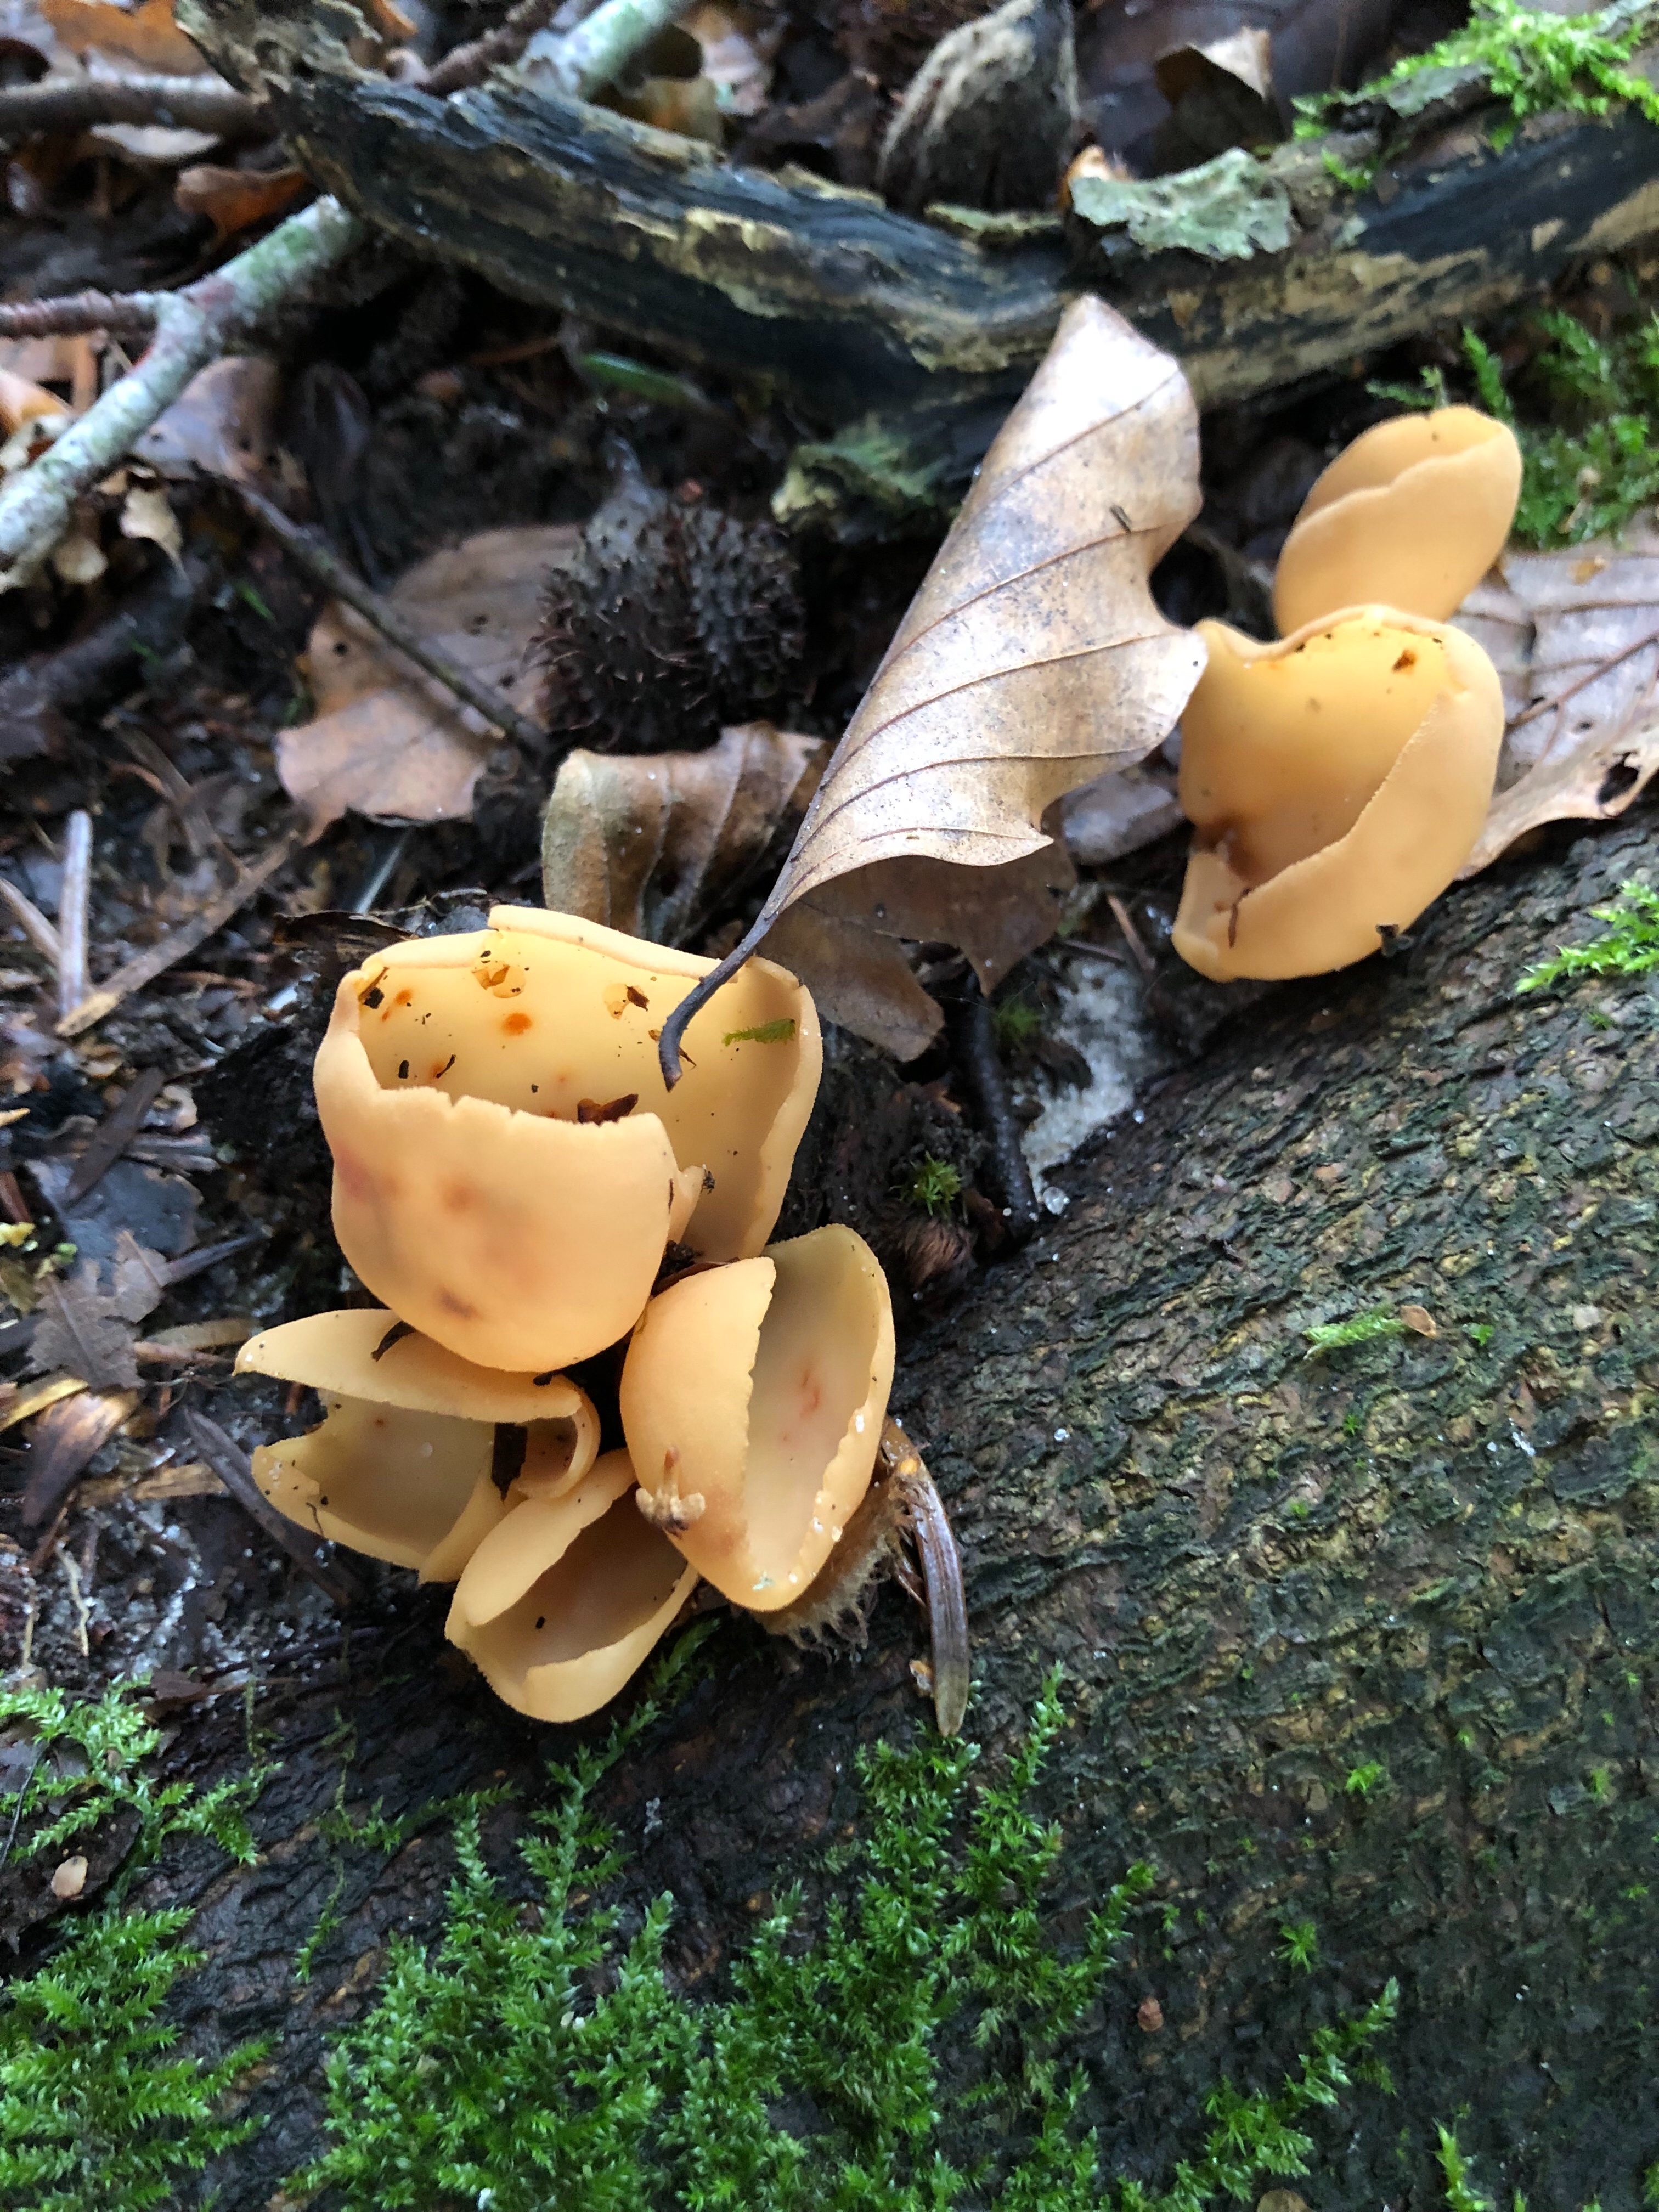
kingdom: Fungi
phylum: Ascomycota
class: Pezizomycetes
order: Pezizales
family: Otideaceae
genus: Otidea
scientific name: Otidea onotica
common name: æsel-ørebæger
